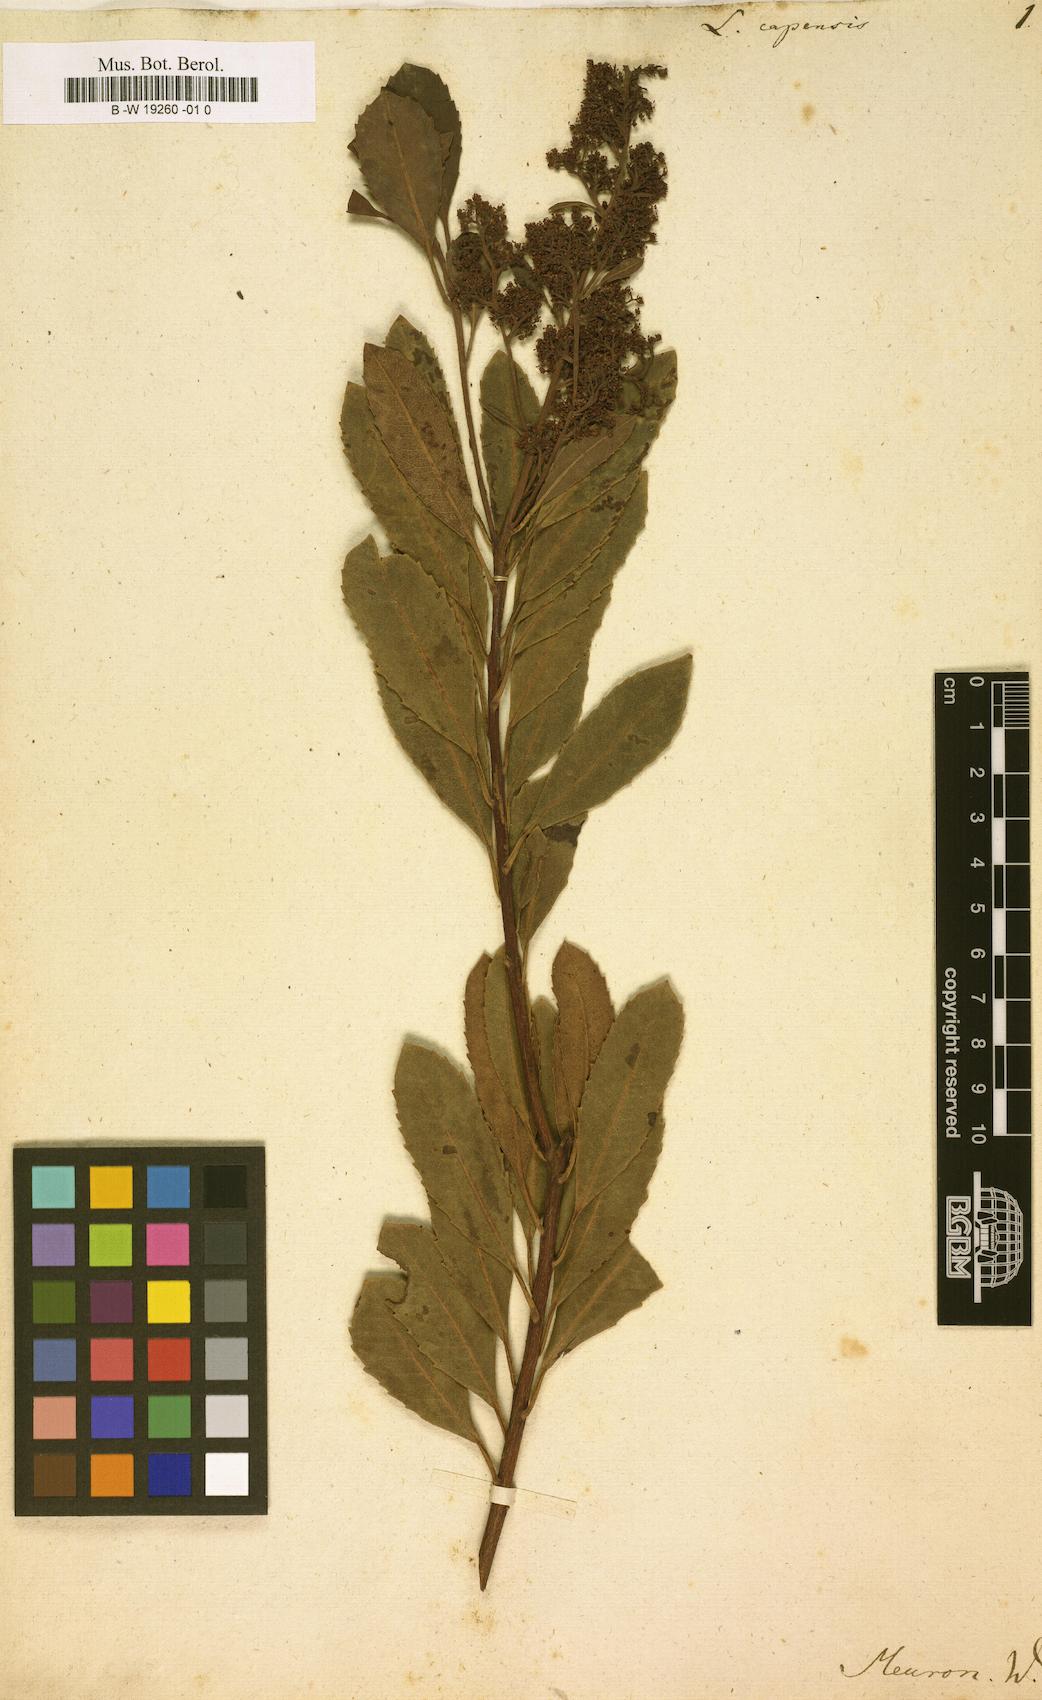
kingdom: Plantae
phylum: Tracheophyta
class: Magnoliopsida
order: Sapindales
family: Anacardiaceae
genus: Laurophyllus
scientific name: Laurophyllus capensis
